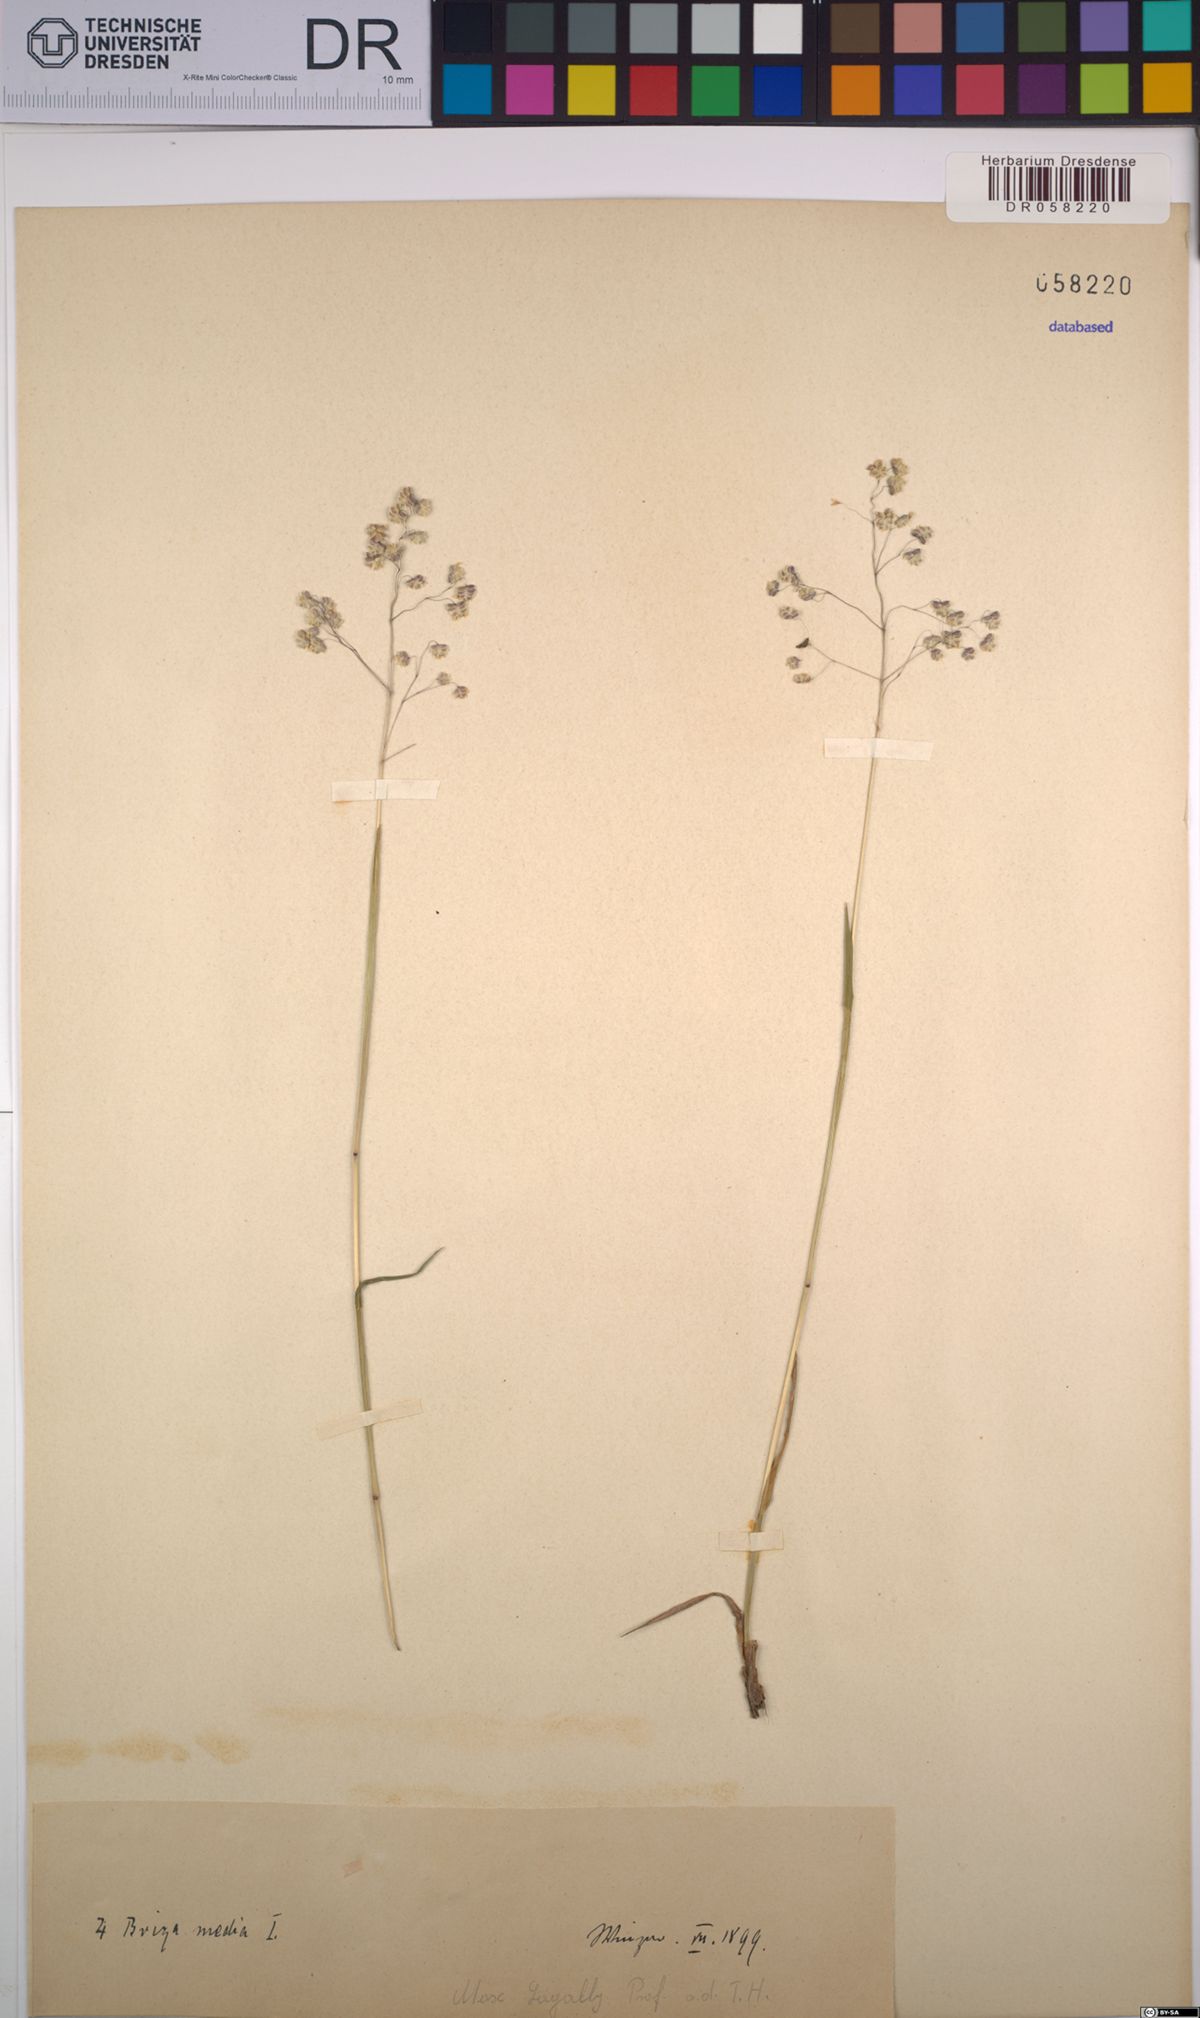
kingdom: Plantae
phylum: Tracheophyta
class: Liliopsida
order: Poales
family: Poaceae
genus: Briza
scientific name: Briza media
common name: Quaking grass
